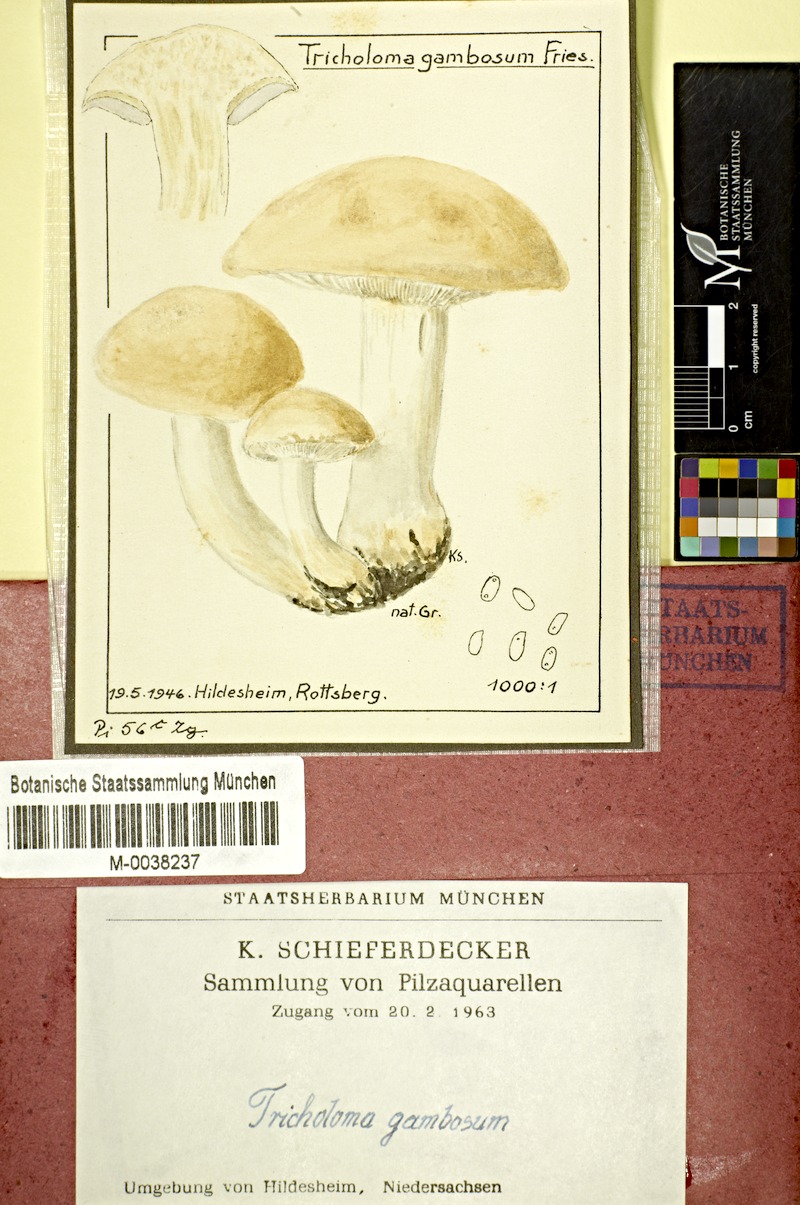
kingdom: Fungi
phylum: Basidiomycota
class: Agaricomycetes
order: Agaricales
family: Lyophyllaceae
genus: Calocybe
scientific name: Calocybe gambosa
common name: St. george's mushroom
